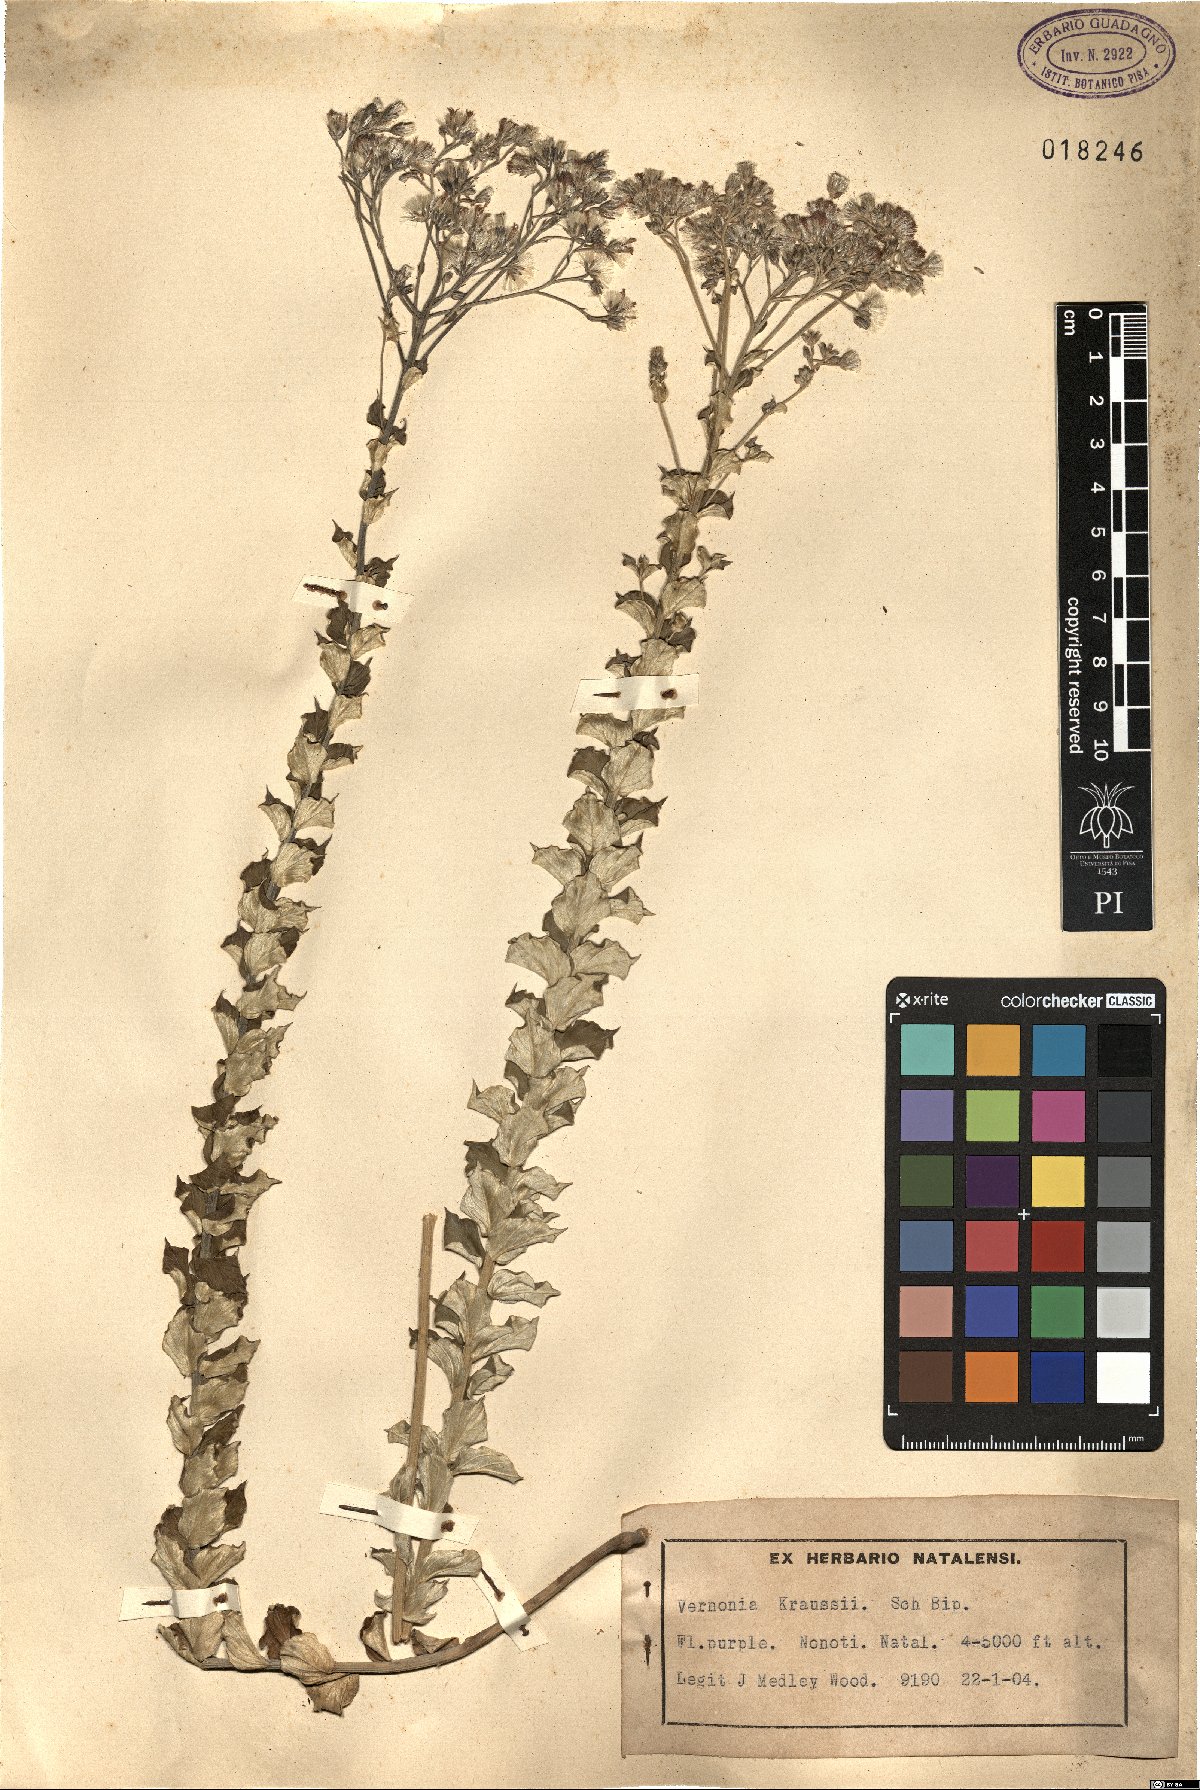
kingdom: Plantae
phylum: Tracheophyta
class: Magnoliopsida
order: Asterales
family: Asteraceae
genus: Hilliardiella
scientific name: Hilliardiella oligocephala
